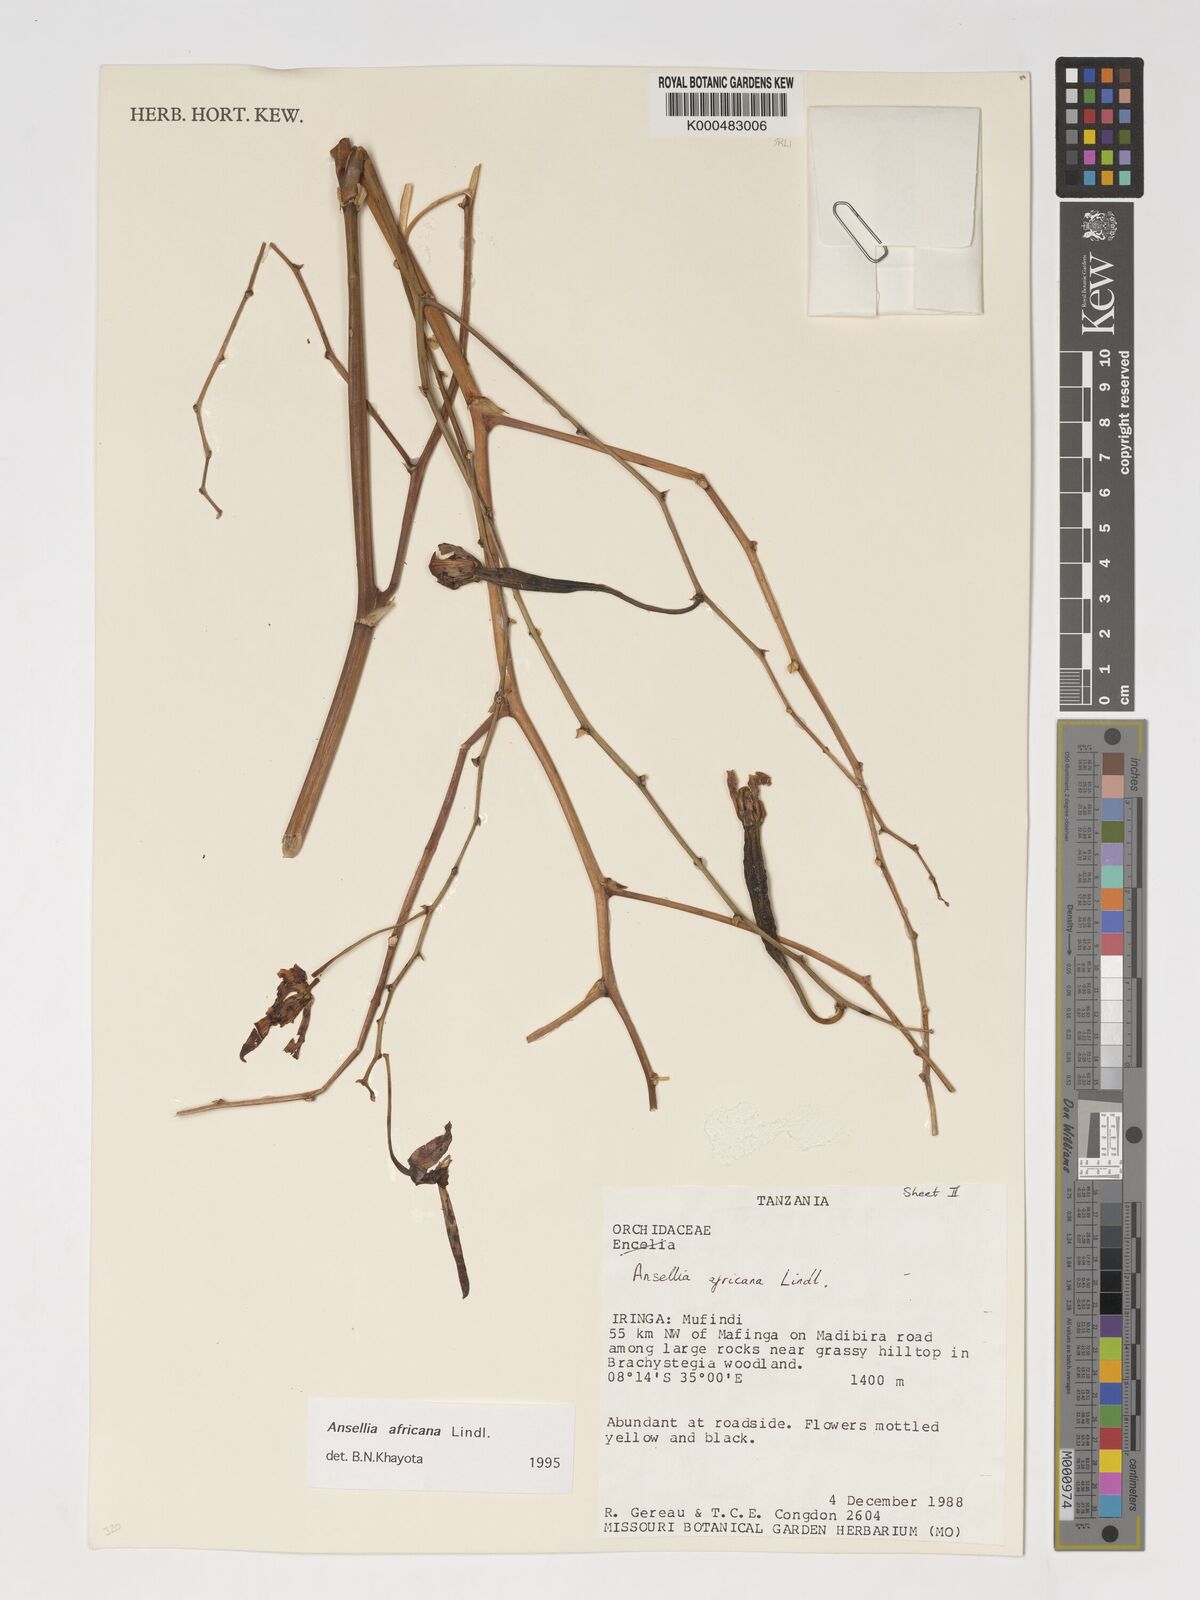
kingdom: Plantae
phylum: Tracheophyta
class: Liliopsida
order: Asparagales
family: Orchidaceae
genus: Ansellia
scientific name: Ansellia africana
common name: African ansellia
